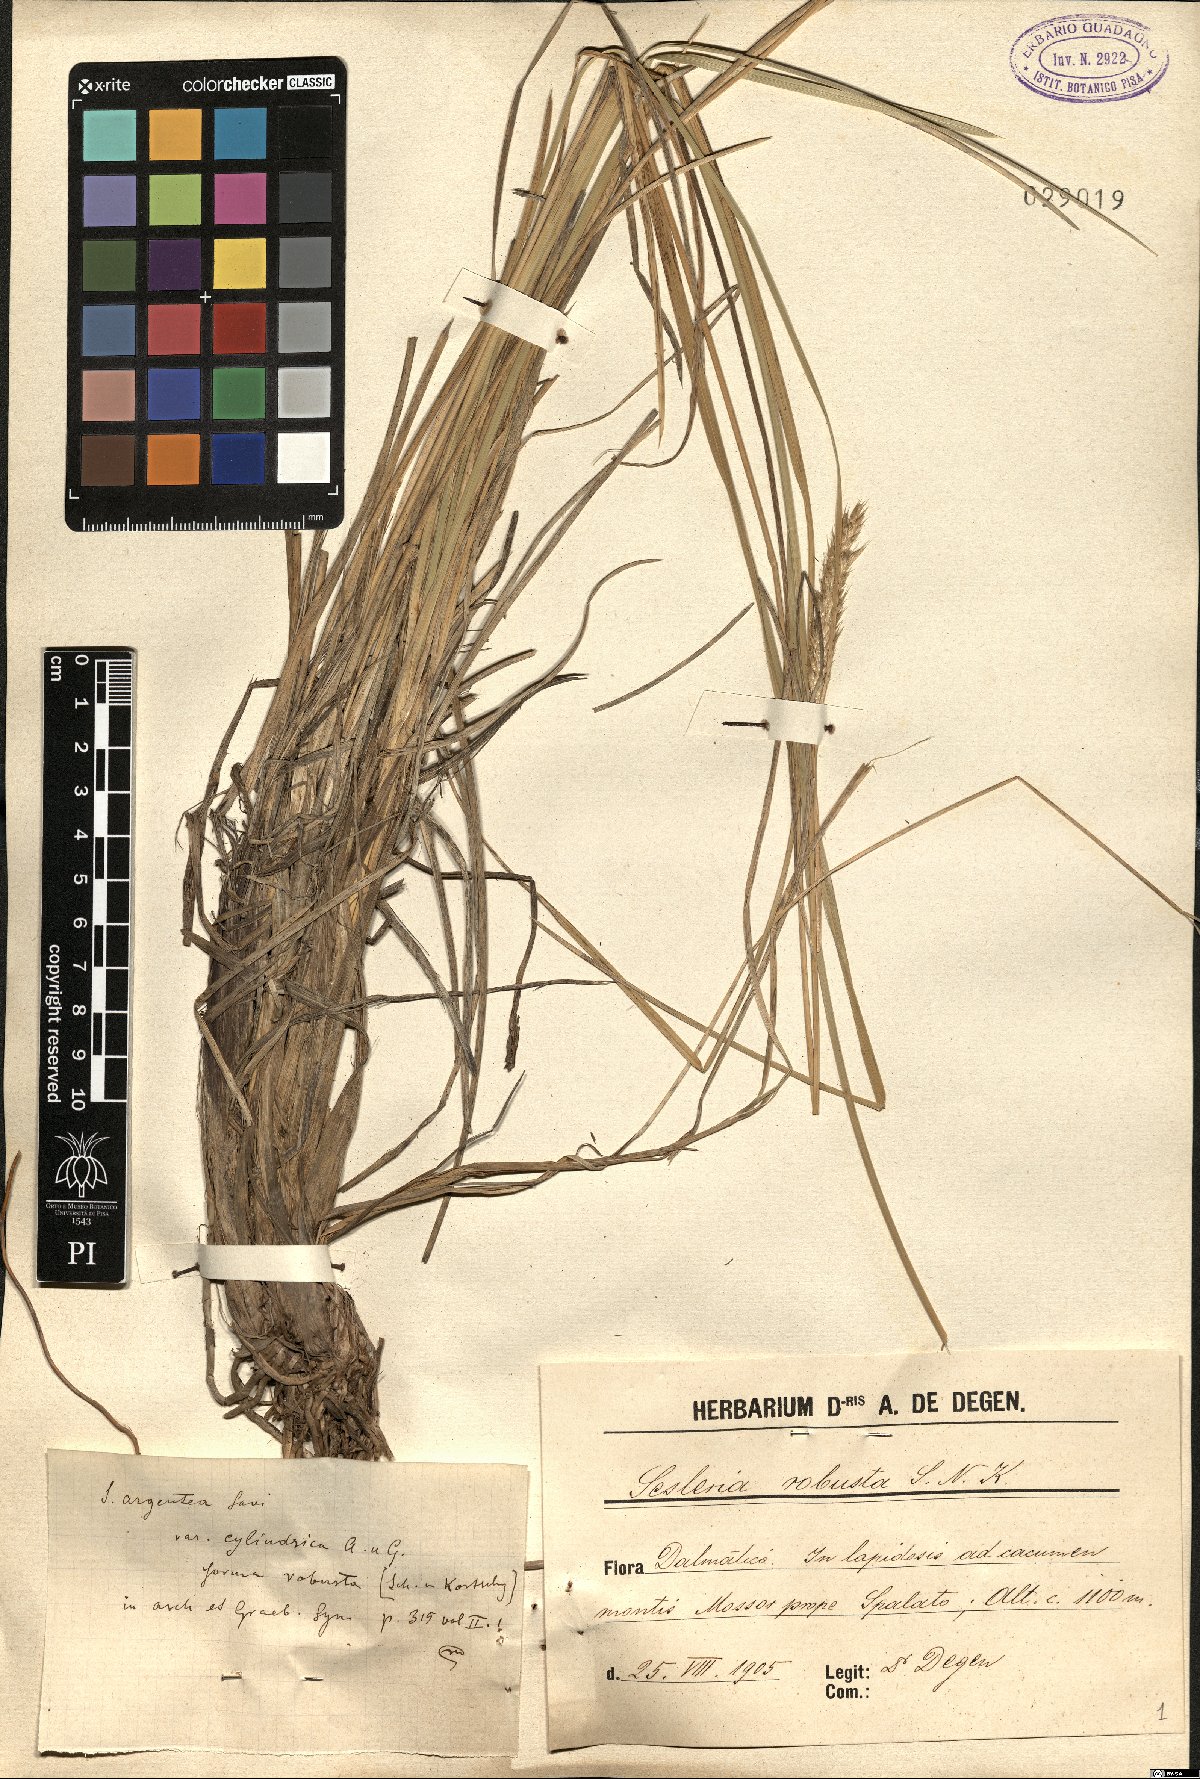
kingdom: Plantae
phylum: Tracheophyta
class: Liliopsida
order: Poales
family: Poaceae
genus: Sesleria
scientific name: Sesleria argentea
